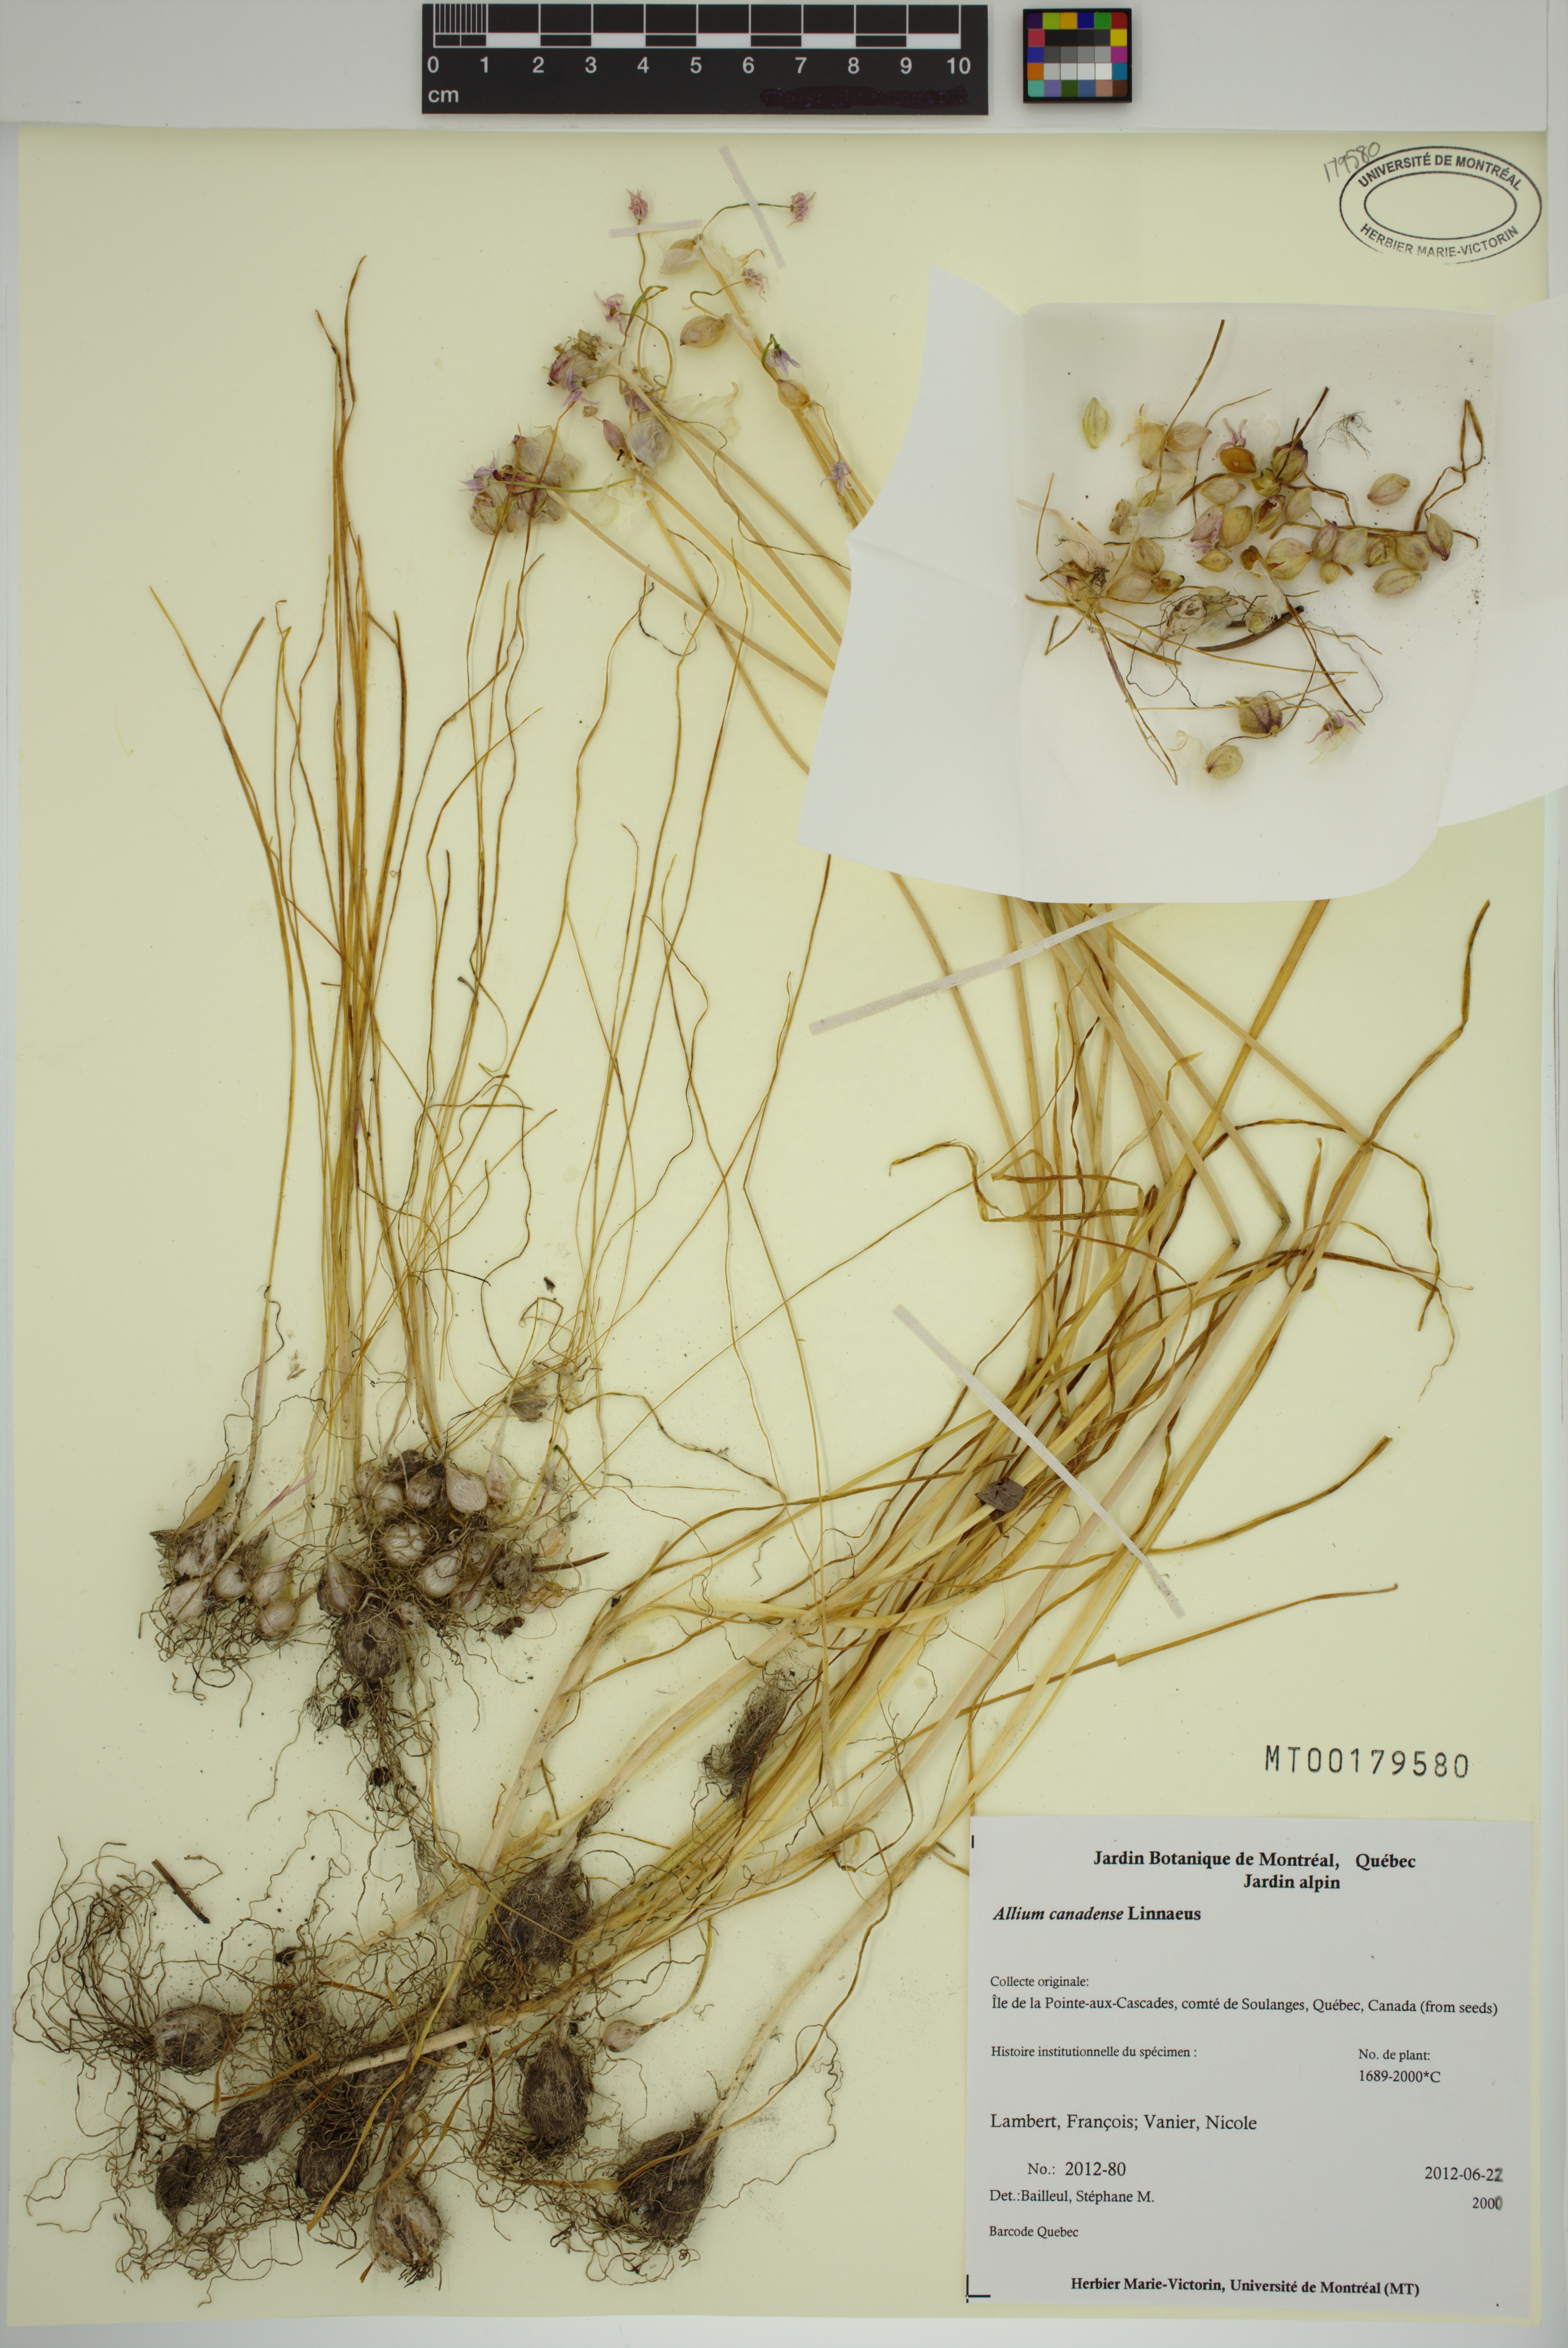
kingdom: Plantae
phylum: Tracheophyta
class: Liliopsida
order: Asparagales
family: Amaryllidaceae
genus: Allium
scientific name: Allium canadense
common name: Meadow garlic
